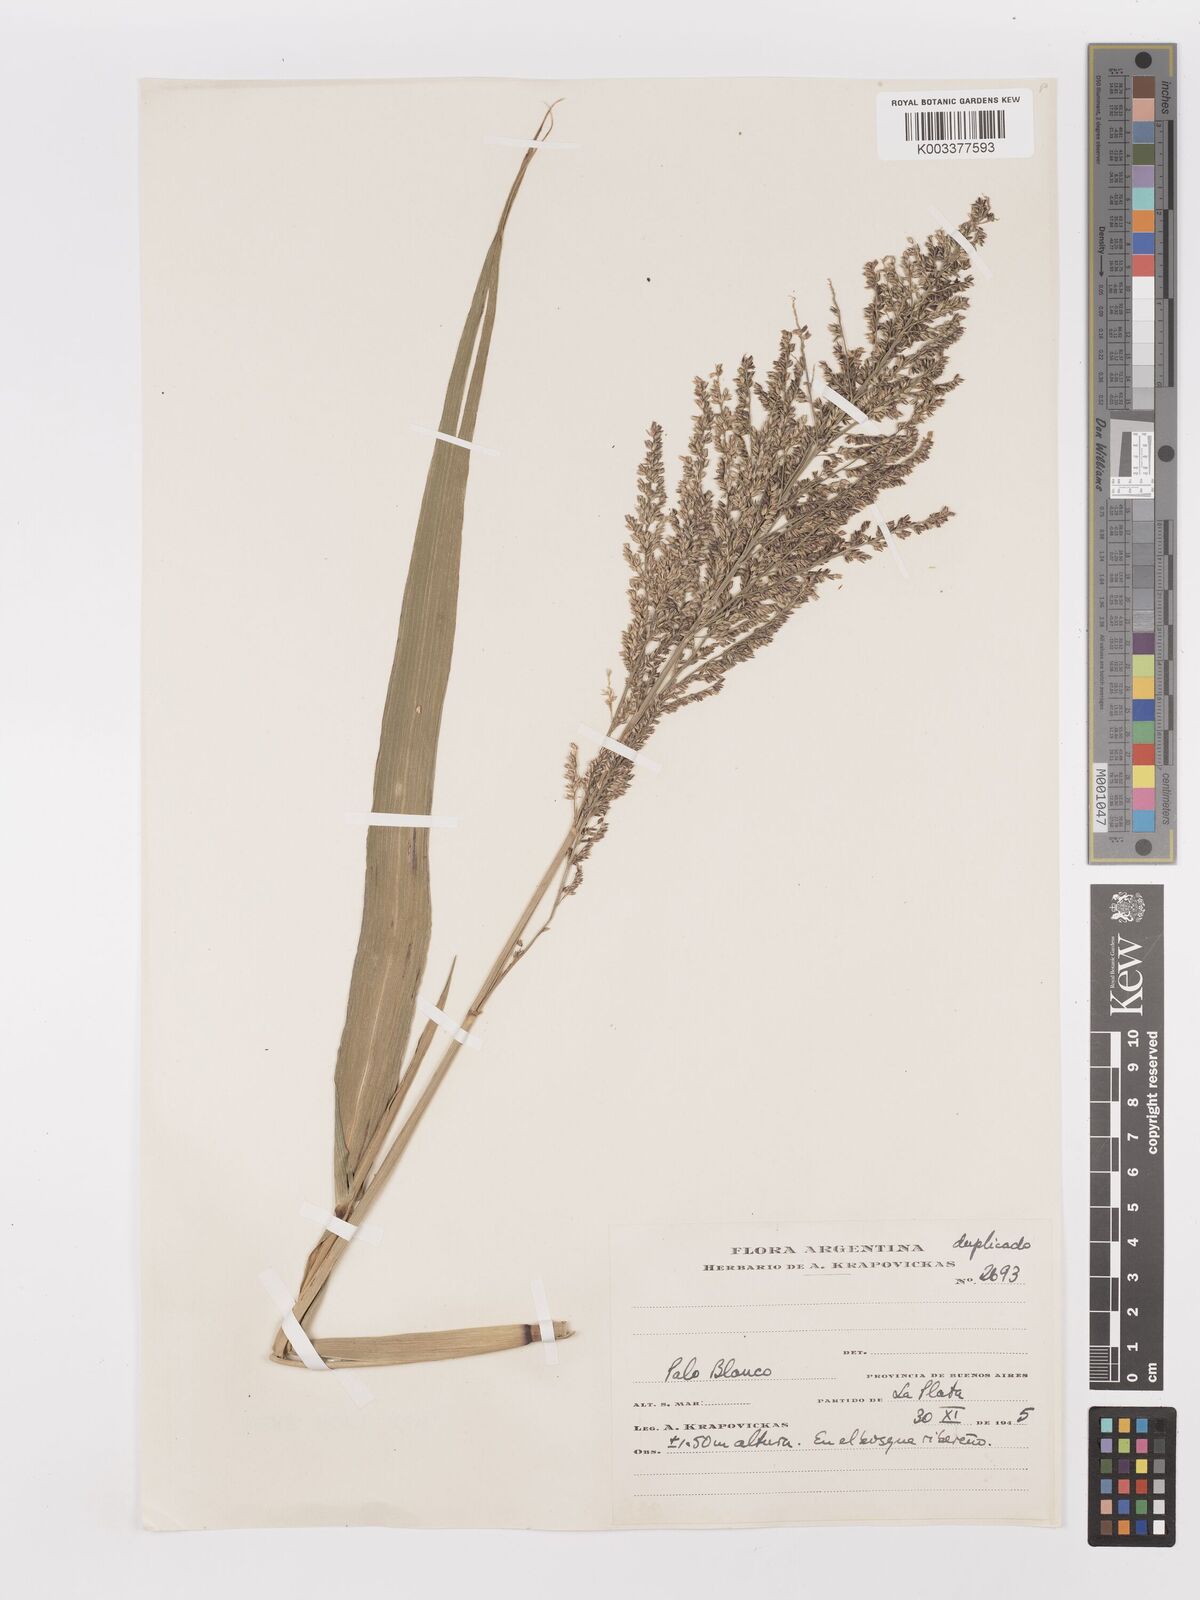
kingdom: Plantae
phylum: Tracheophyta
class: Liliopsida
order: Poales
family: Poaceae
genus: Hymenachne
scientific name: Hymenachne grumosa
